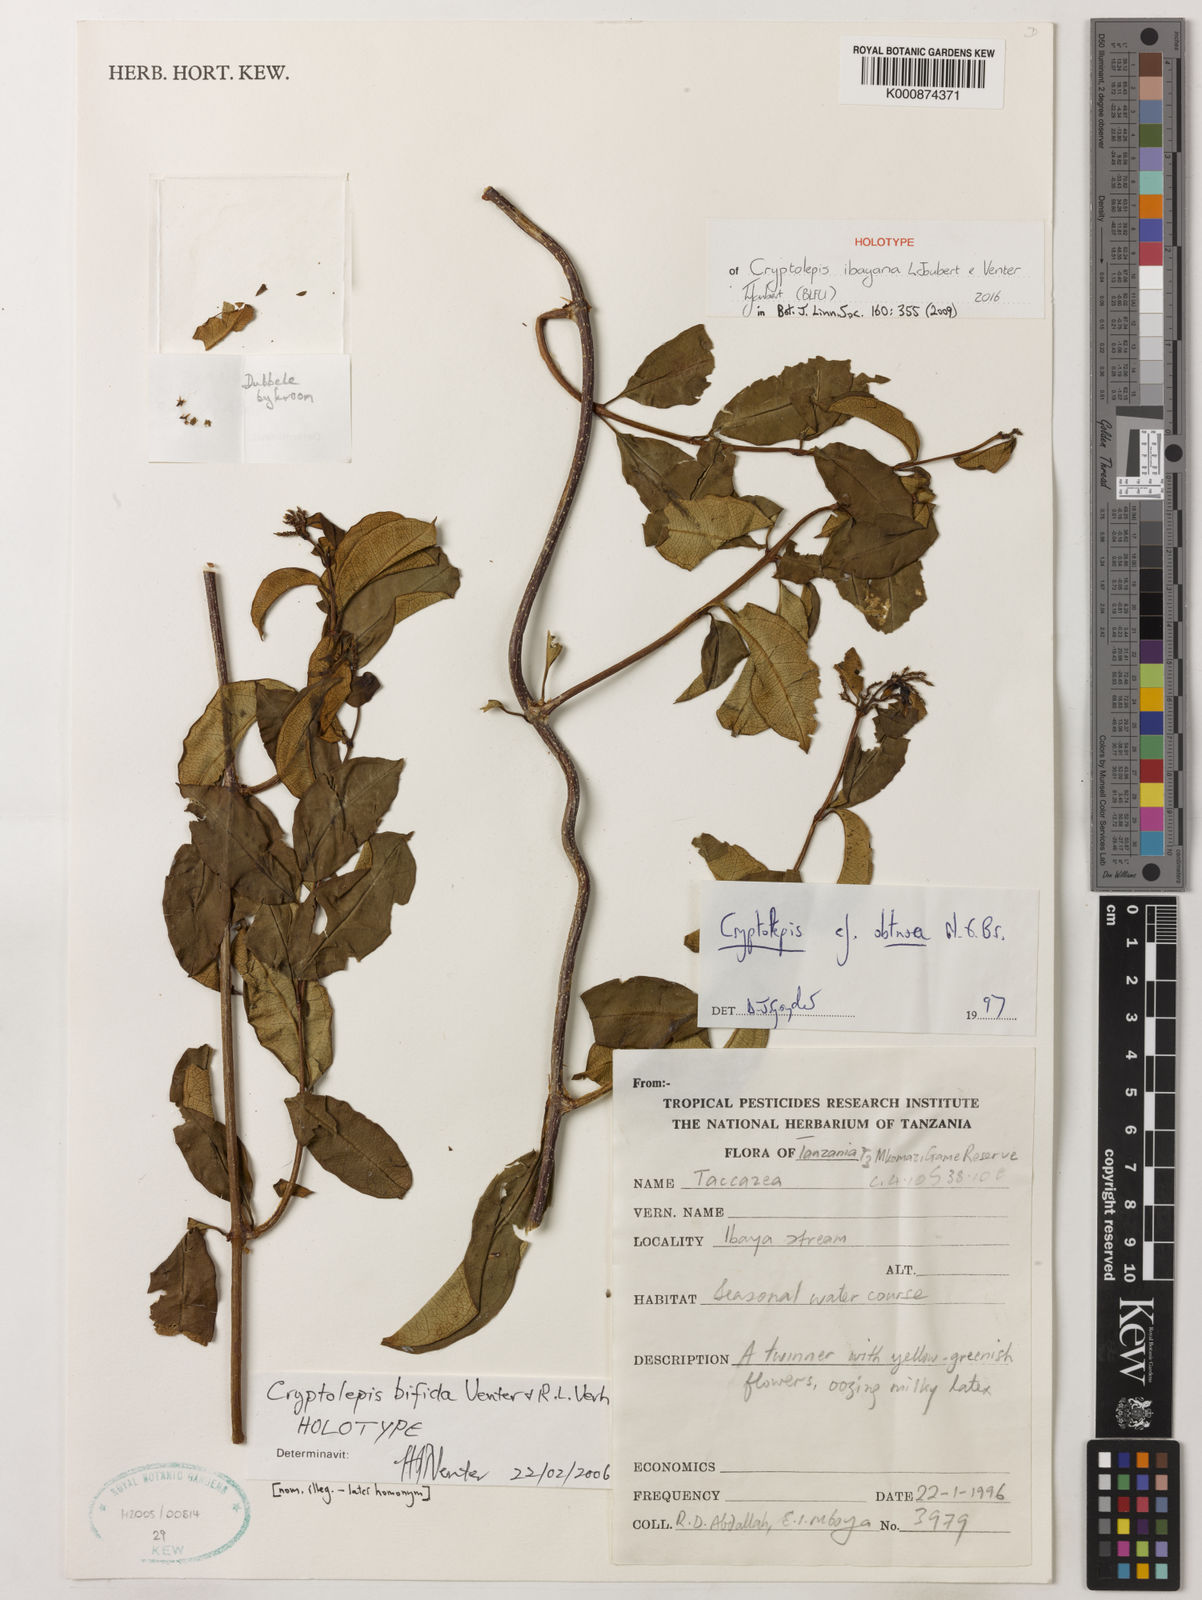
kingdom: Plantae
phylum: Tracheophyta
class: Magnoliopsida
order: Gentianales
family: Apocynaceae
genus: Cryptolepis
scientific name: Cryptolepis ibayana
